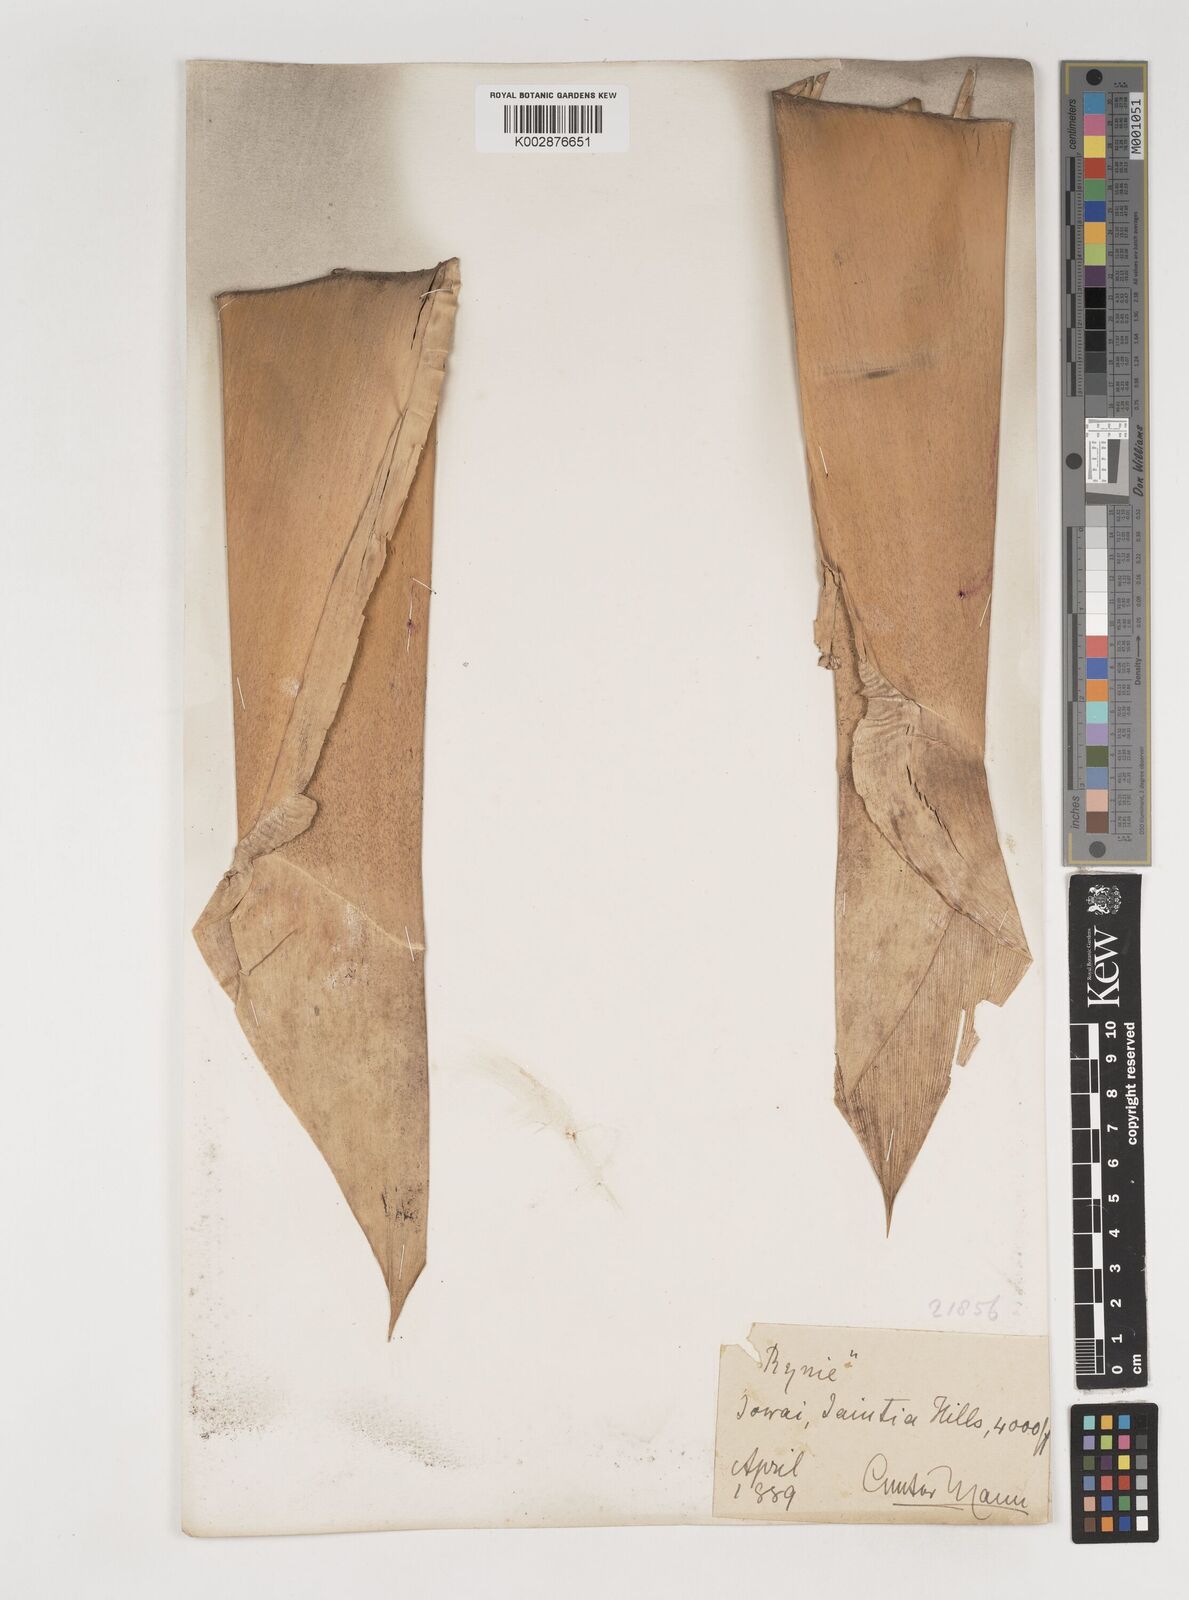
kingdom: Plantae
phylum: Tracheophyta
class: Liliopsida
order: Poales
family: Poaceae
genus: Bambusa
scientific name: Bambusa nutans
